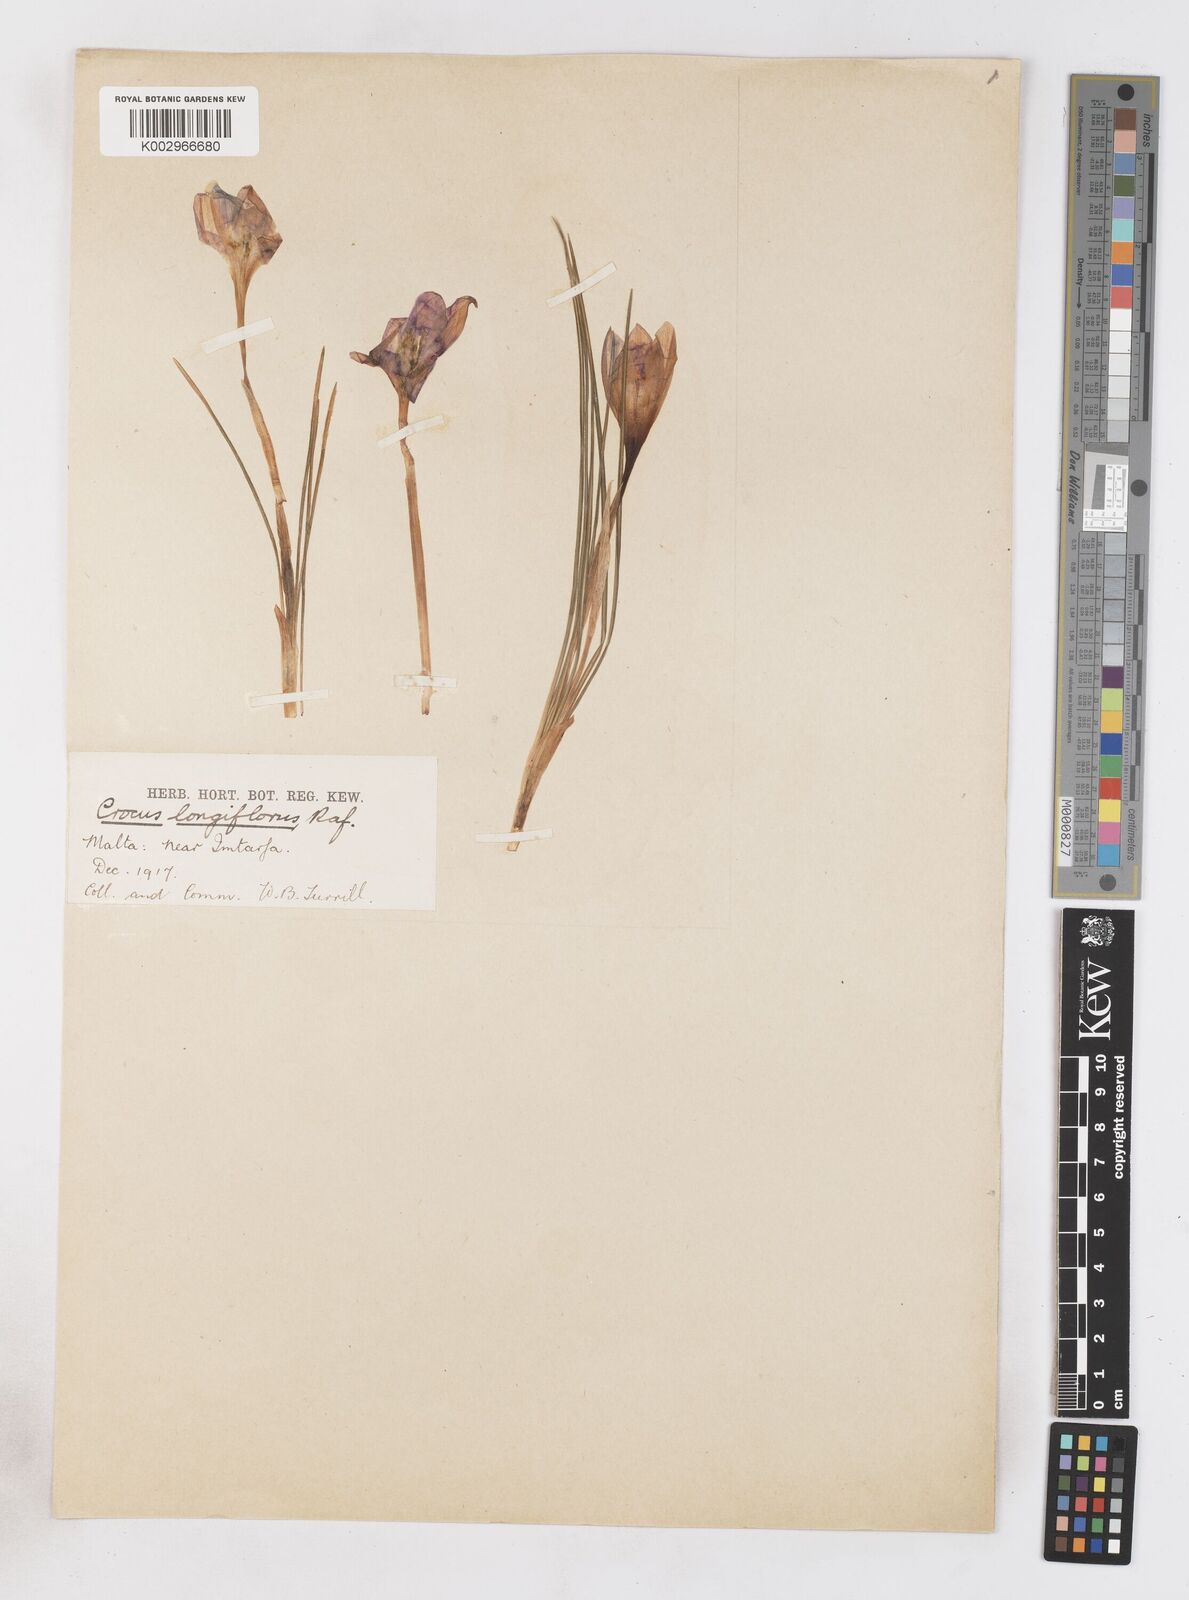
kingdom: Plantae
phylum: Tracheophyta
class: Liliopsida
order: Asparagales
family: Iridaceae
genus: Crocus
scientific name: Crocus longiflorus
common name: Italian crocus
